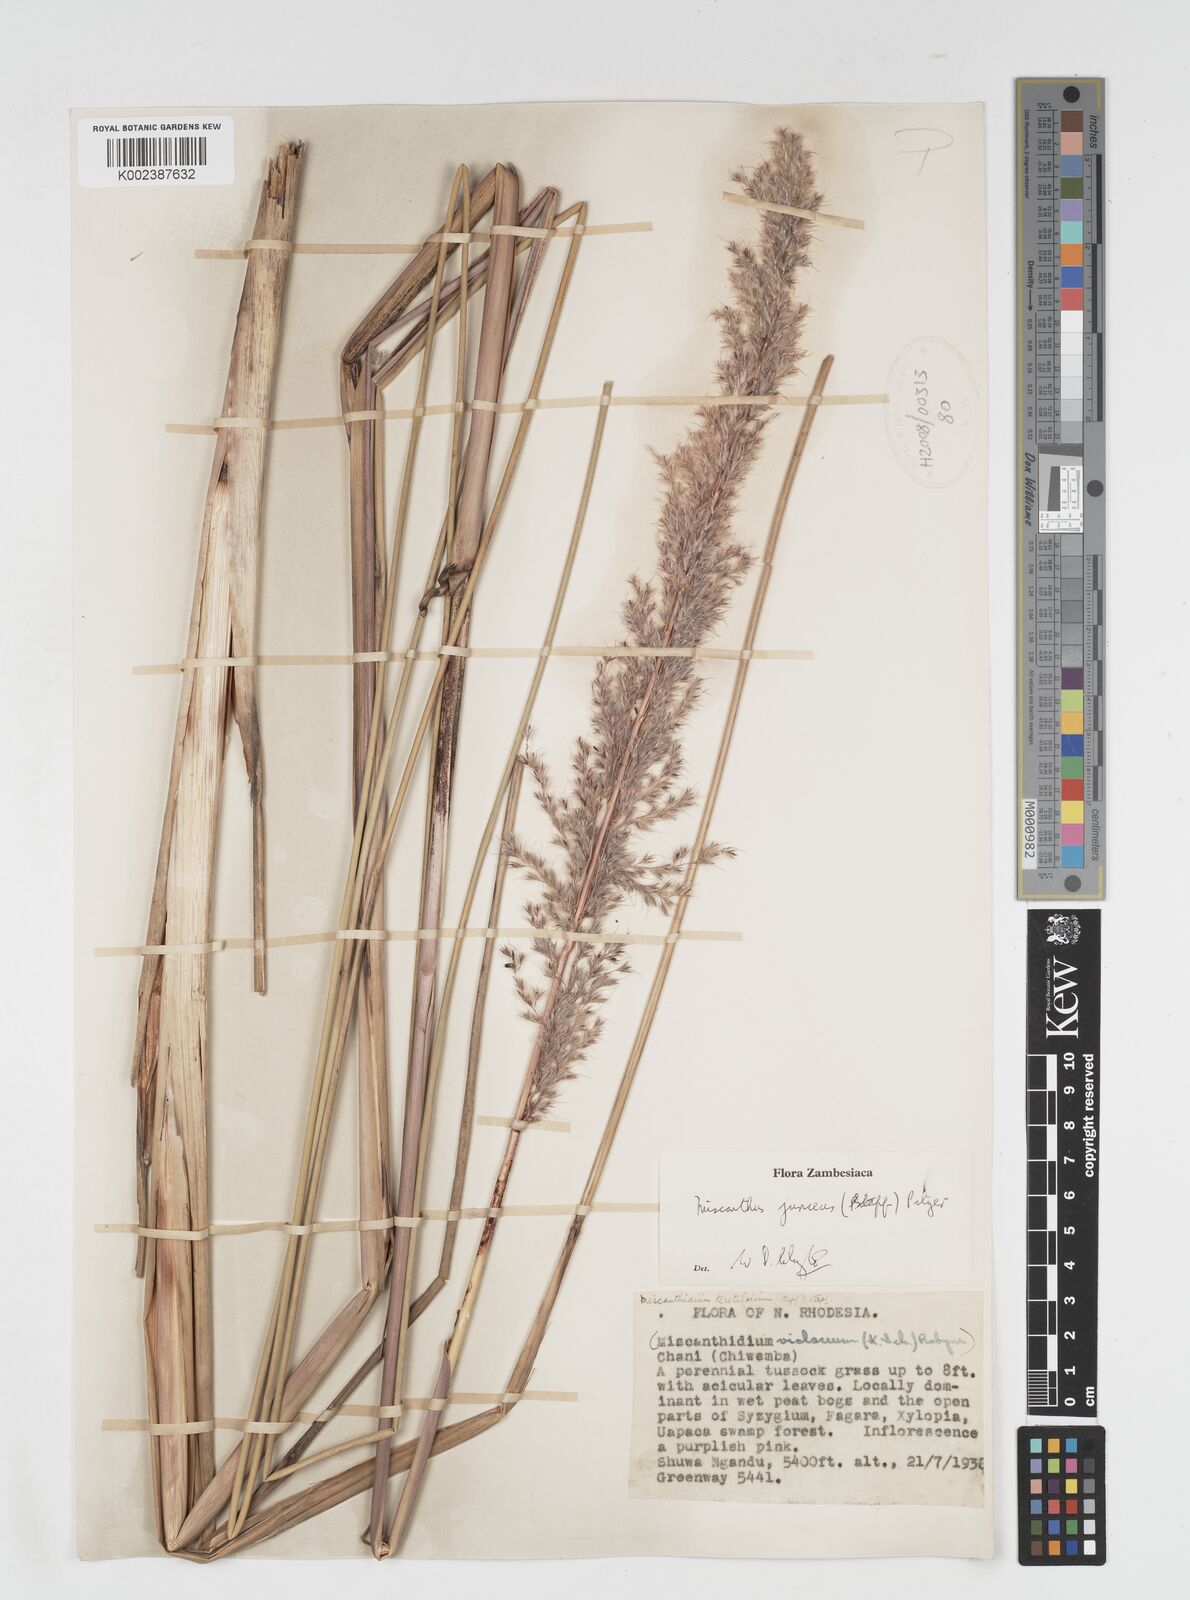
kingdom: Plantae
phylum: Tracheophyta
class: Liliopsida
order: Poales
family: Poaceae
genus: Miscanthidium
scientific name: Miscanthidium junceum
